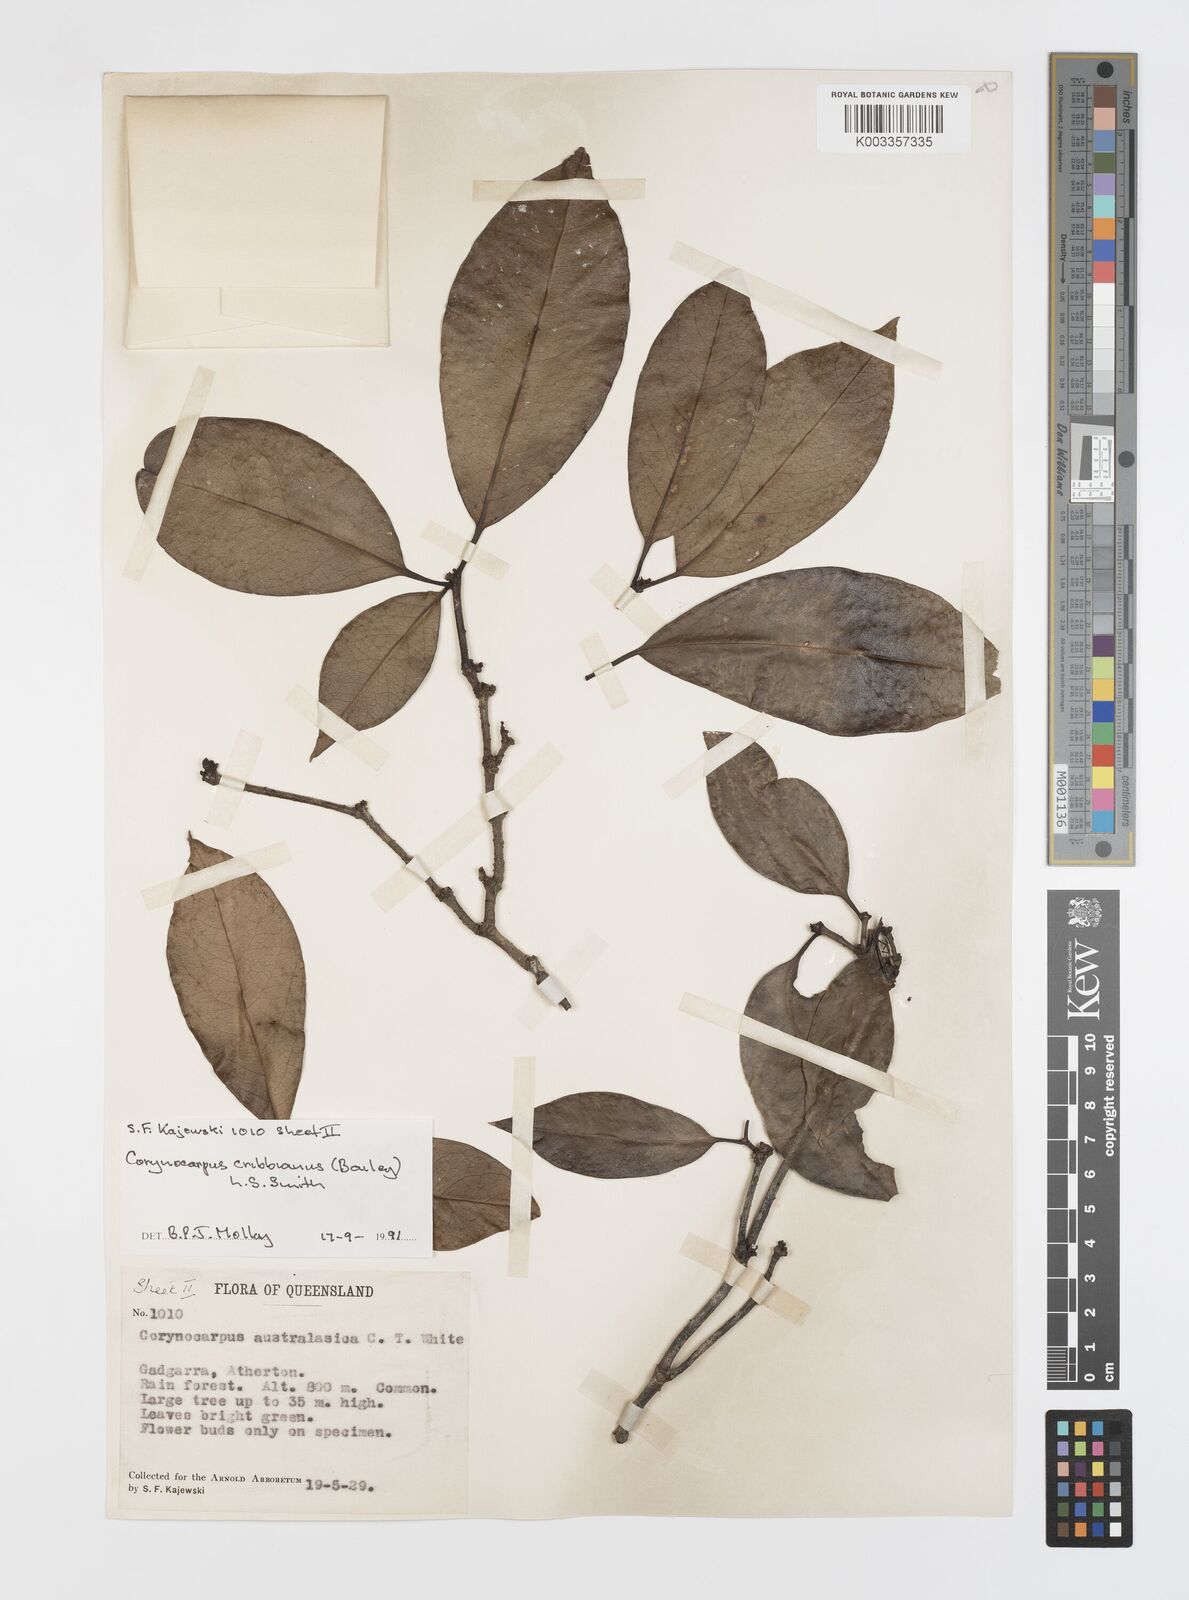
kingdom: Plantae
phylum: Tracheophyta
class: Magnoliopsida
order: Cucurbitales
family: Corynocarpaceae
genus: Corynocarpus
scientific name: Corynocarpus cribbianus
